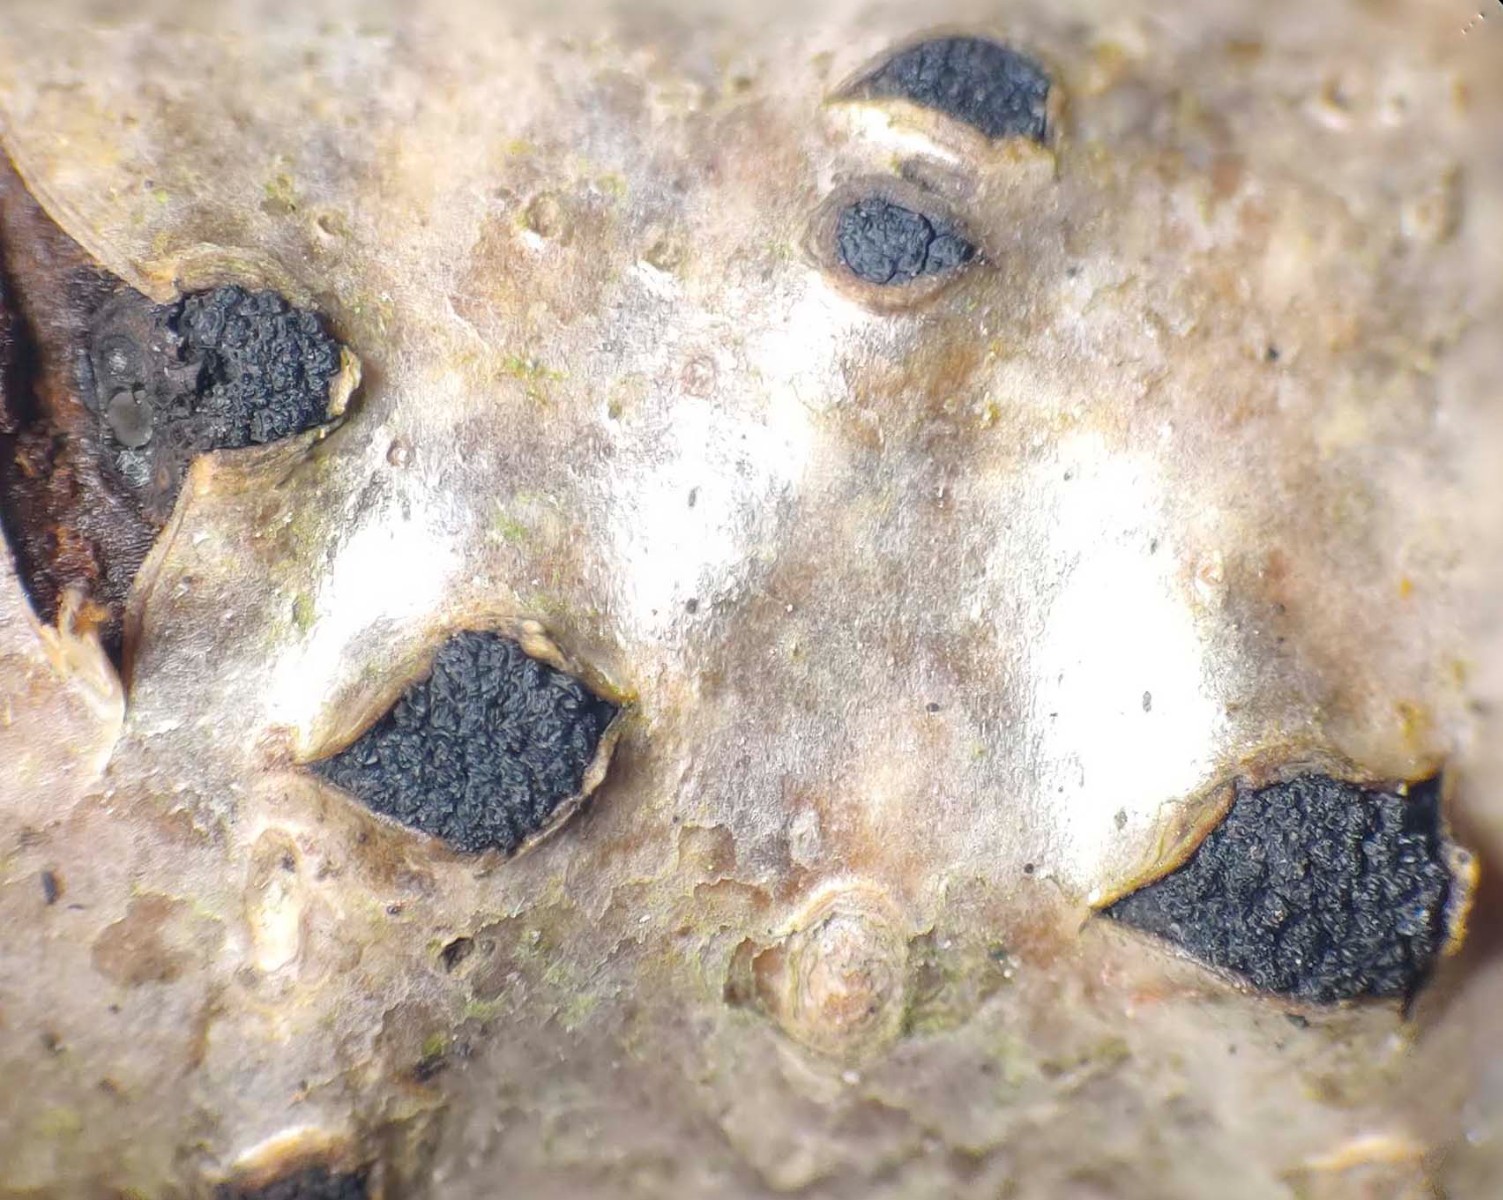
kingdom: Fungi
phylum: Ascomycota
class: Sordariomycetes
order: Xylariales
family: Diatrypaceae
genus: Eutypella
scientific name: Eutypella sorbi
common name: rønne-kulskorpe
